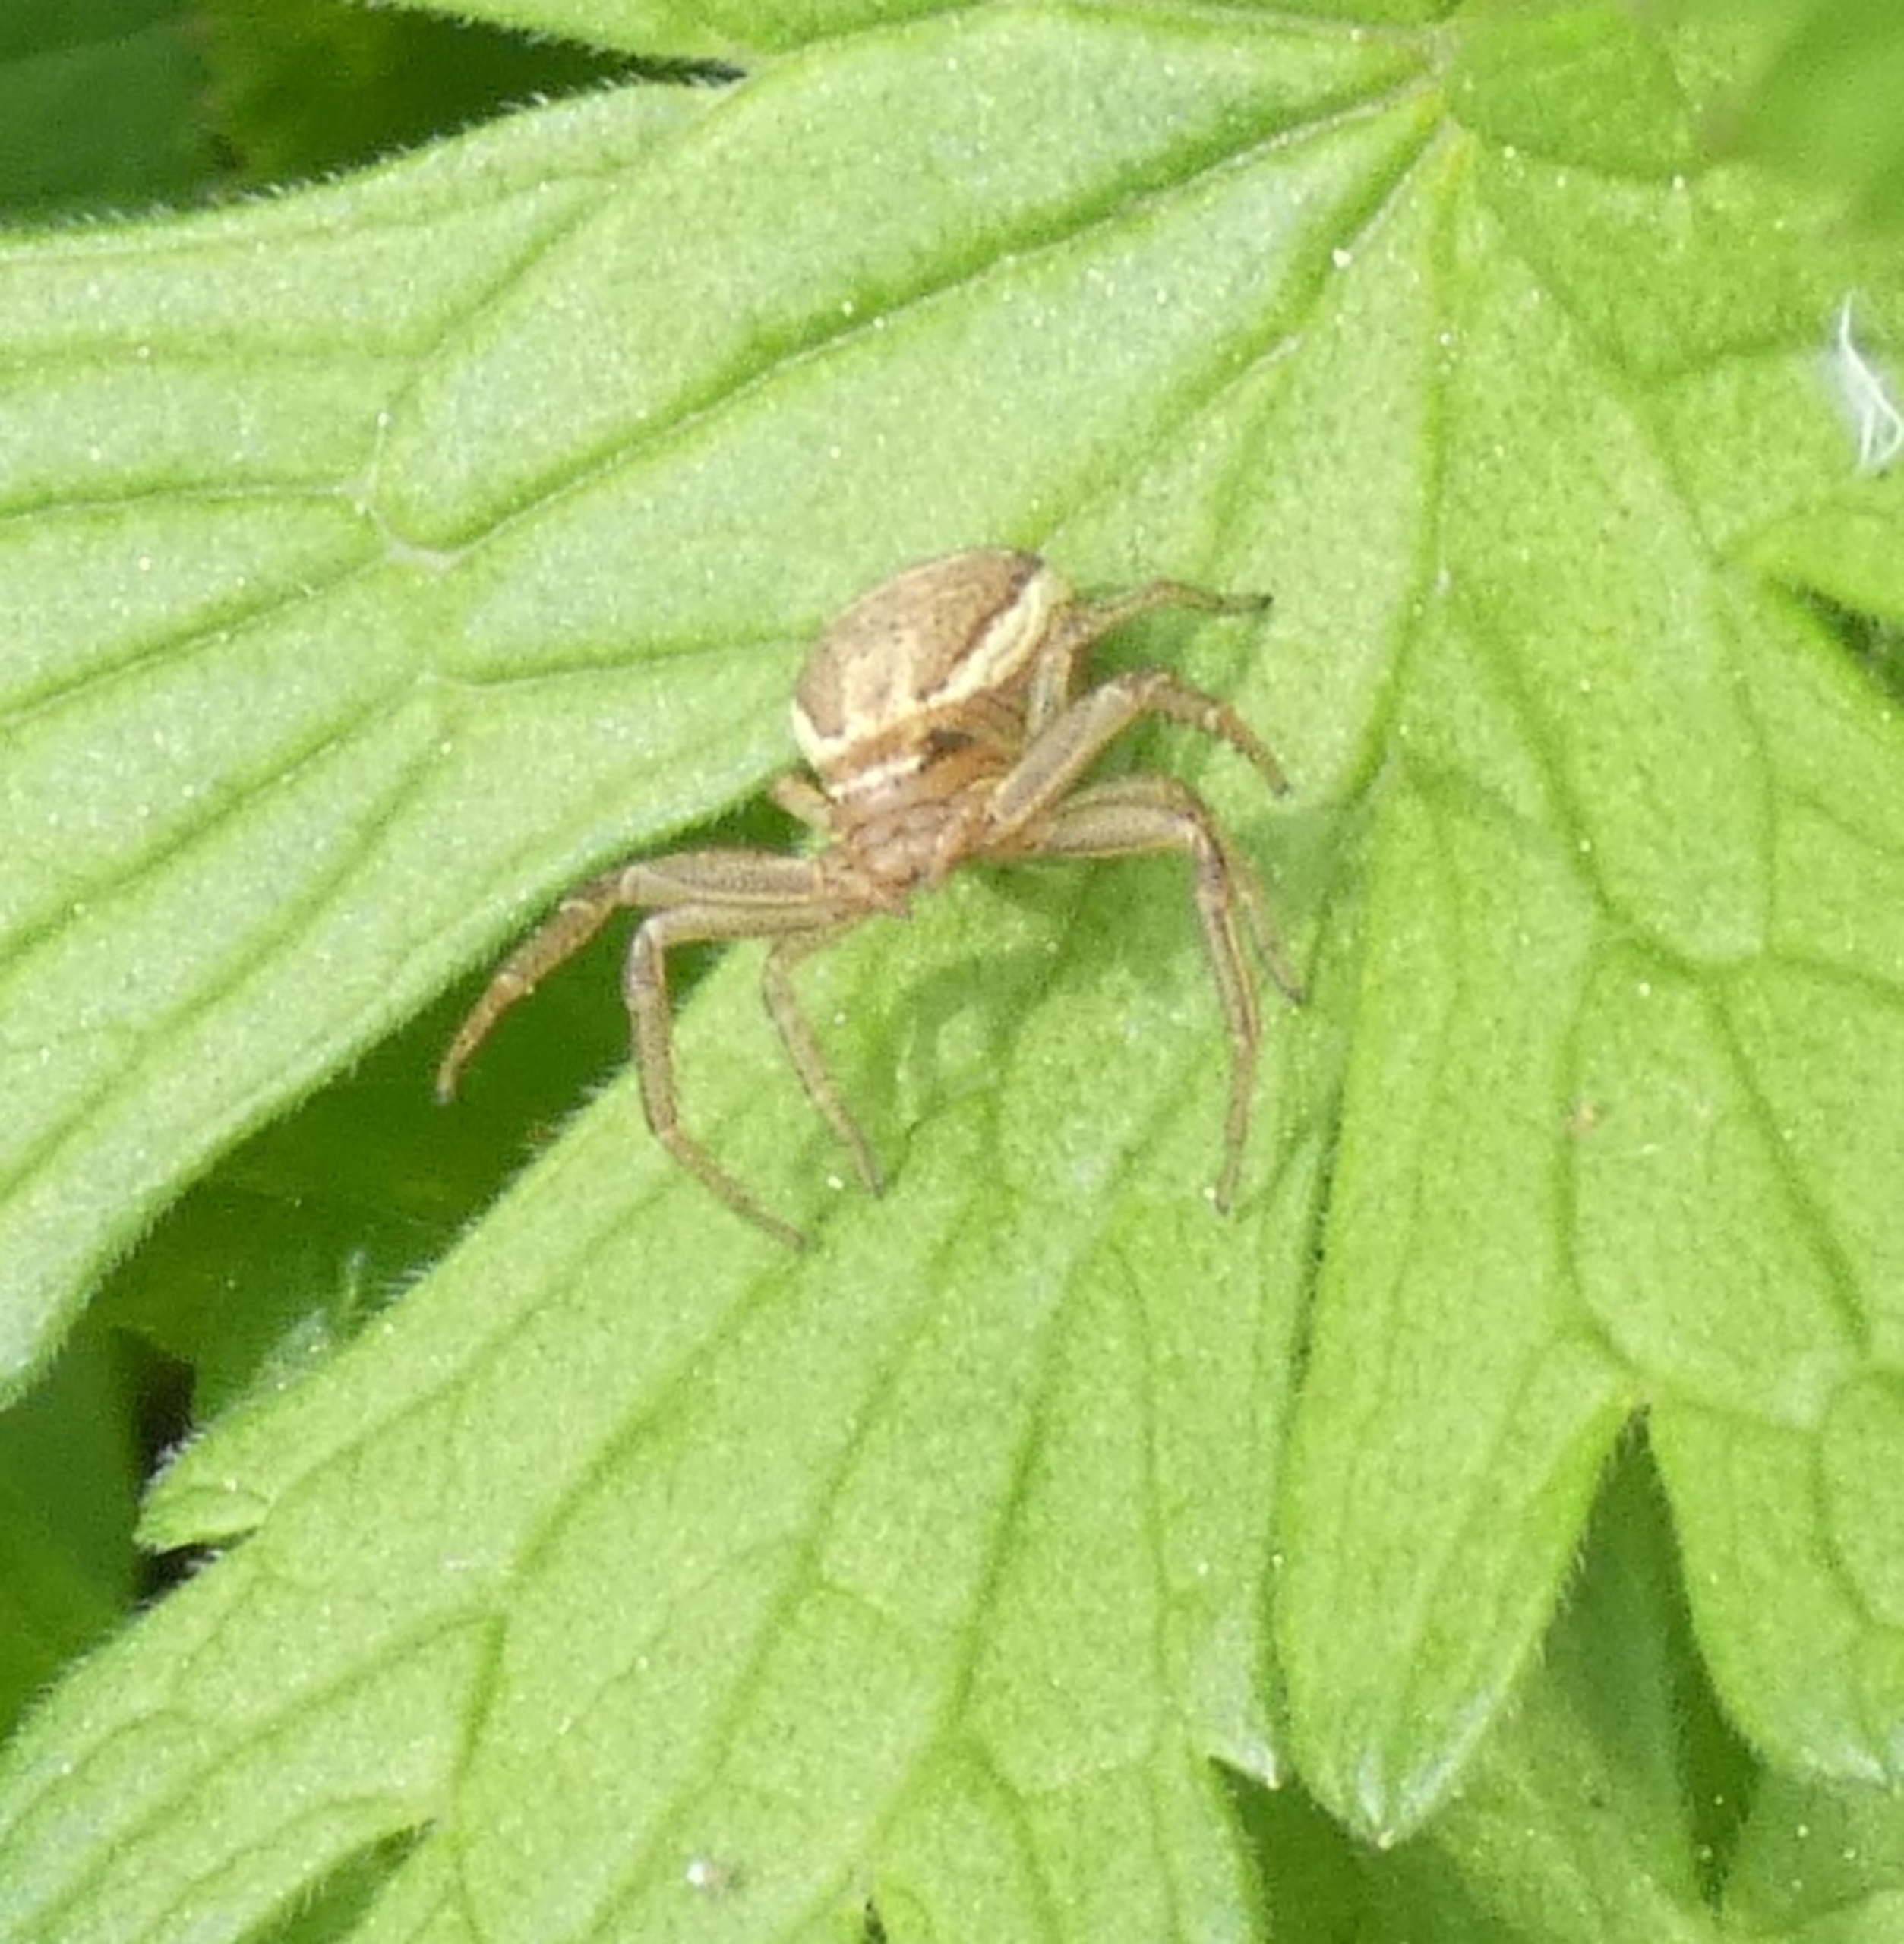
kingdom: Animalia
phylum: Arthropoda
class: Arachnida
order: Araneae
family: Thomisidae
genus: Xysticus
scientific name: Xysticus ulmi
